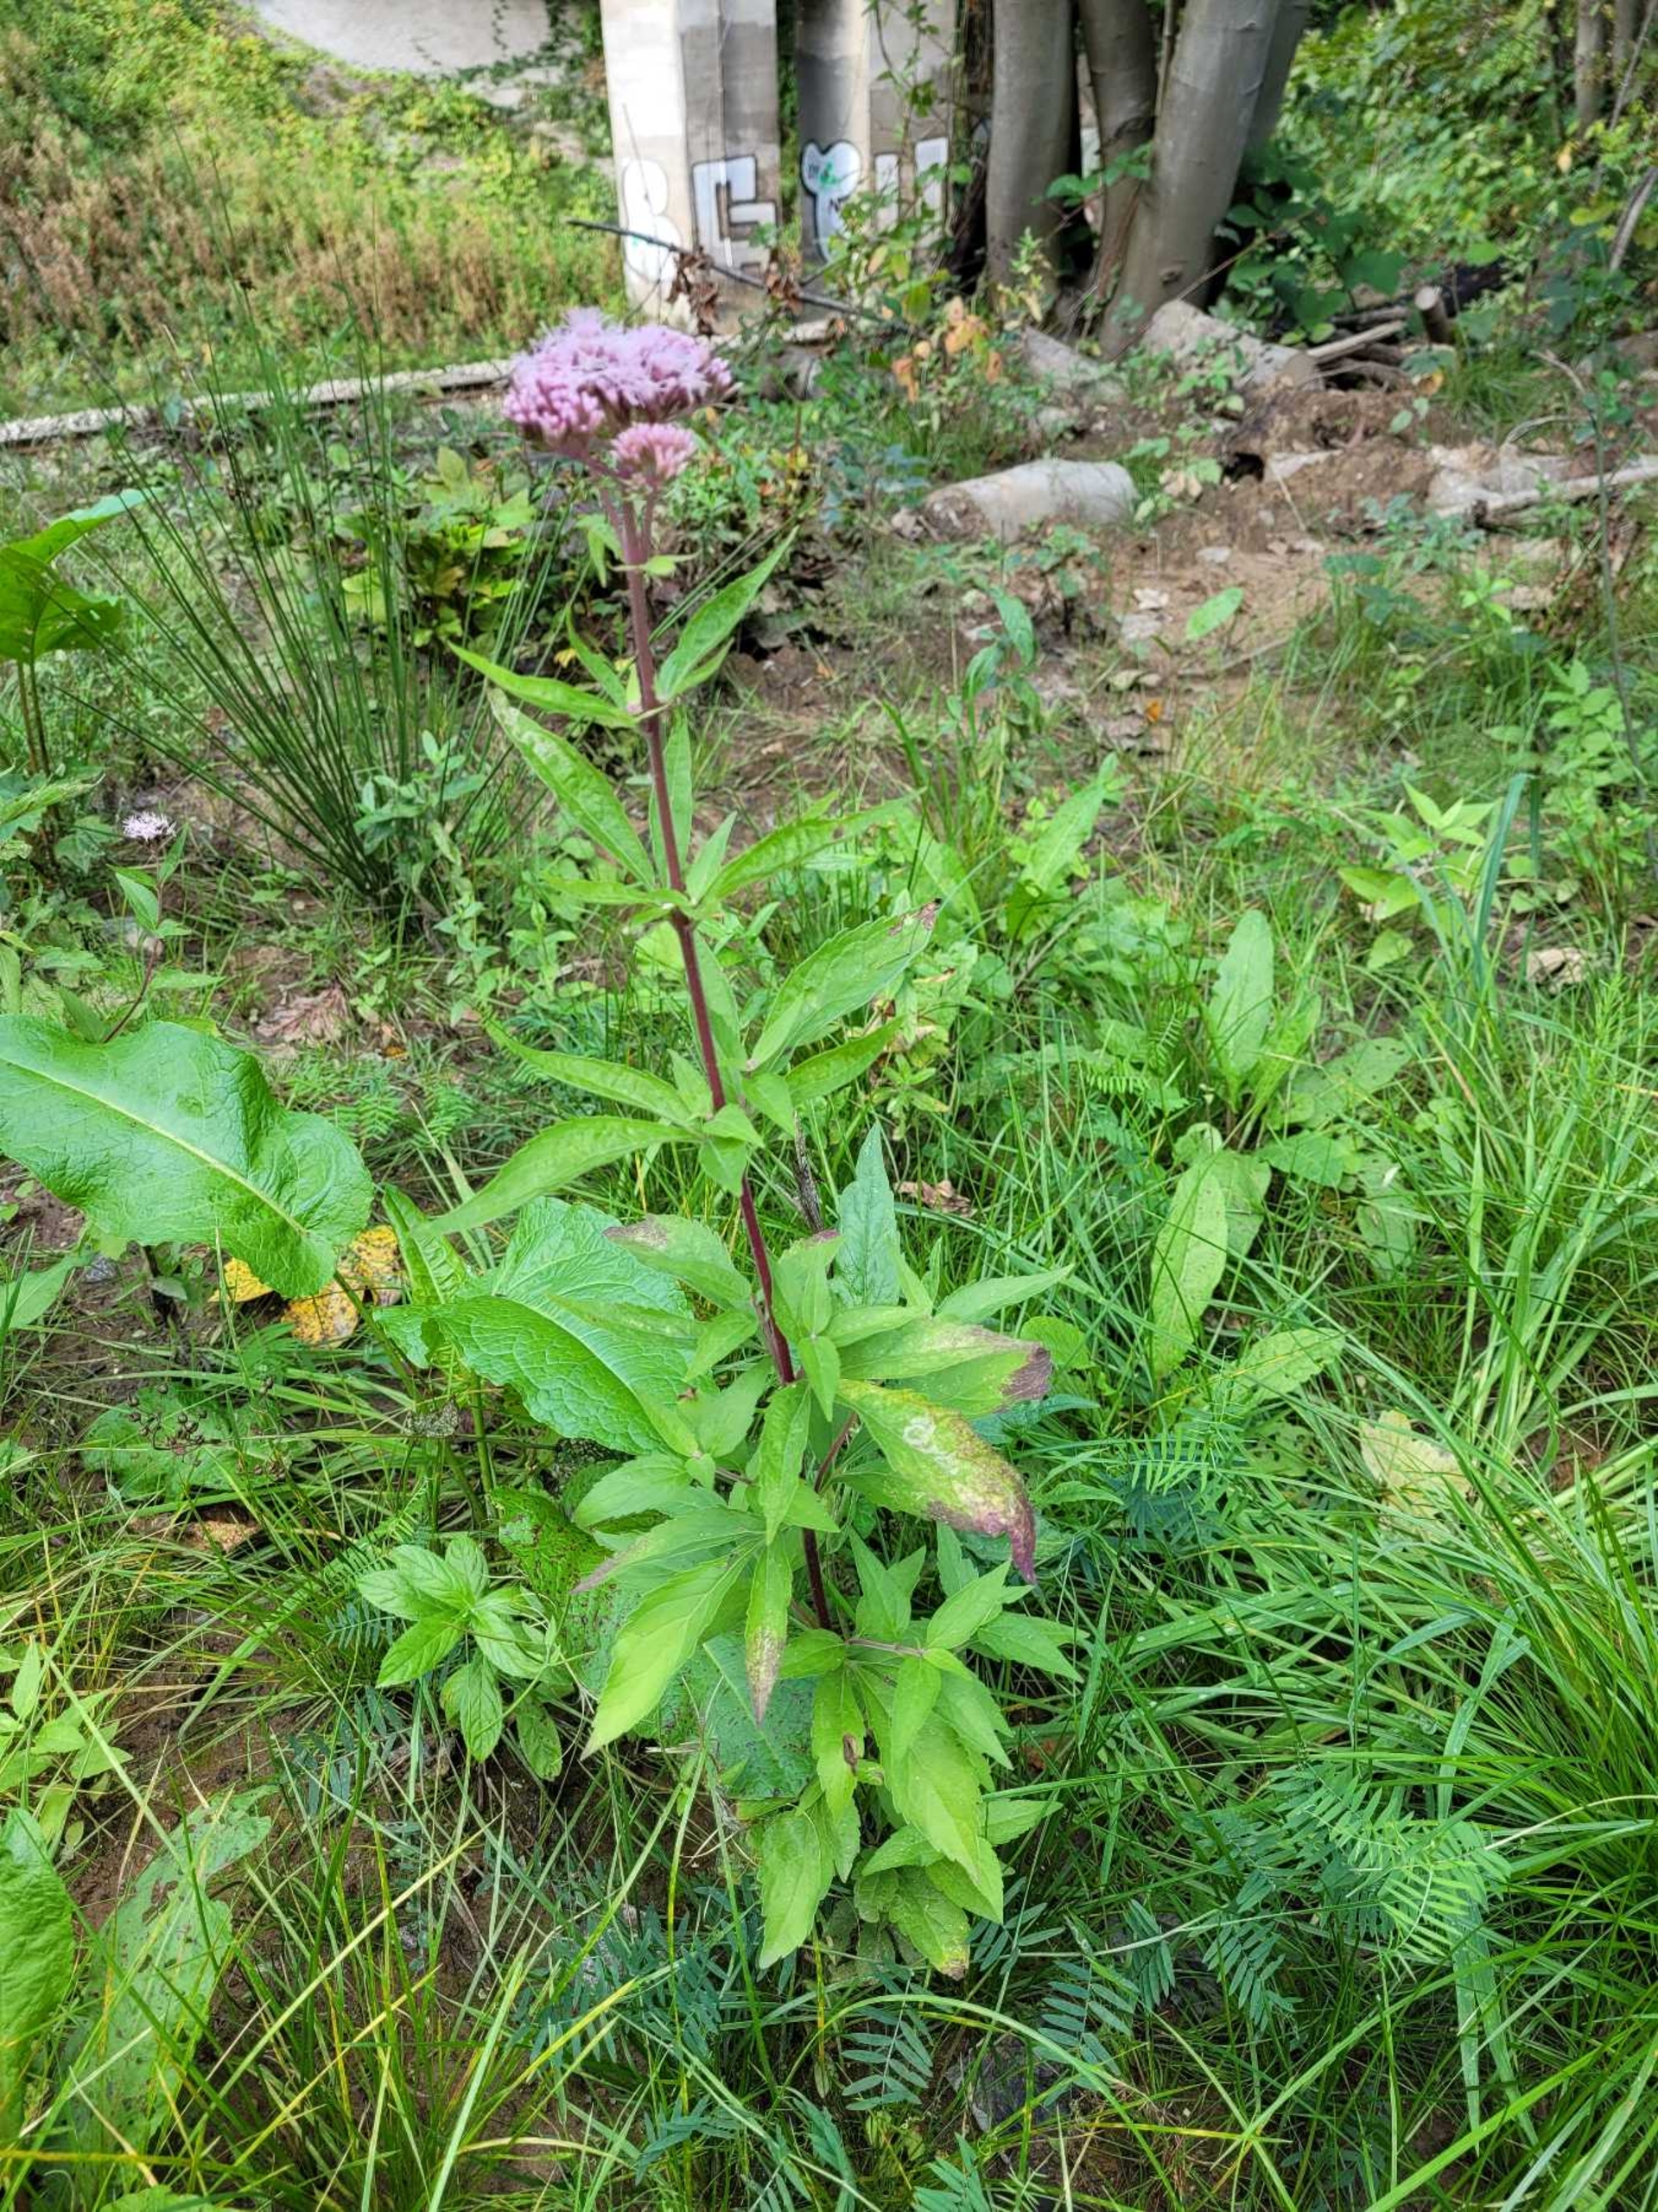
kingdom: Plantae
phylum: Tracheophyta
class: Magnoliopsida
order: Asterales
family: Asteraceae
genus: Eupatorium
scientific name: Eupatorium cannabinum
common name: Hjortetrøst
